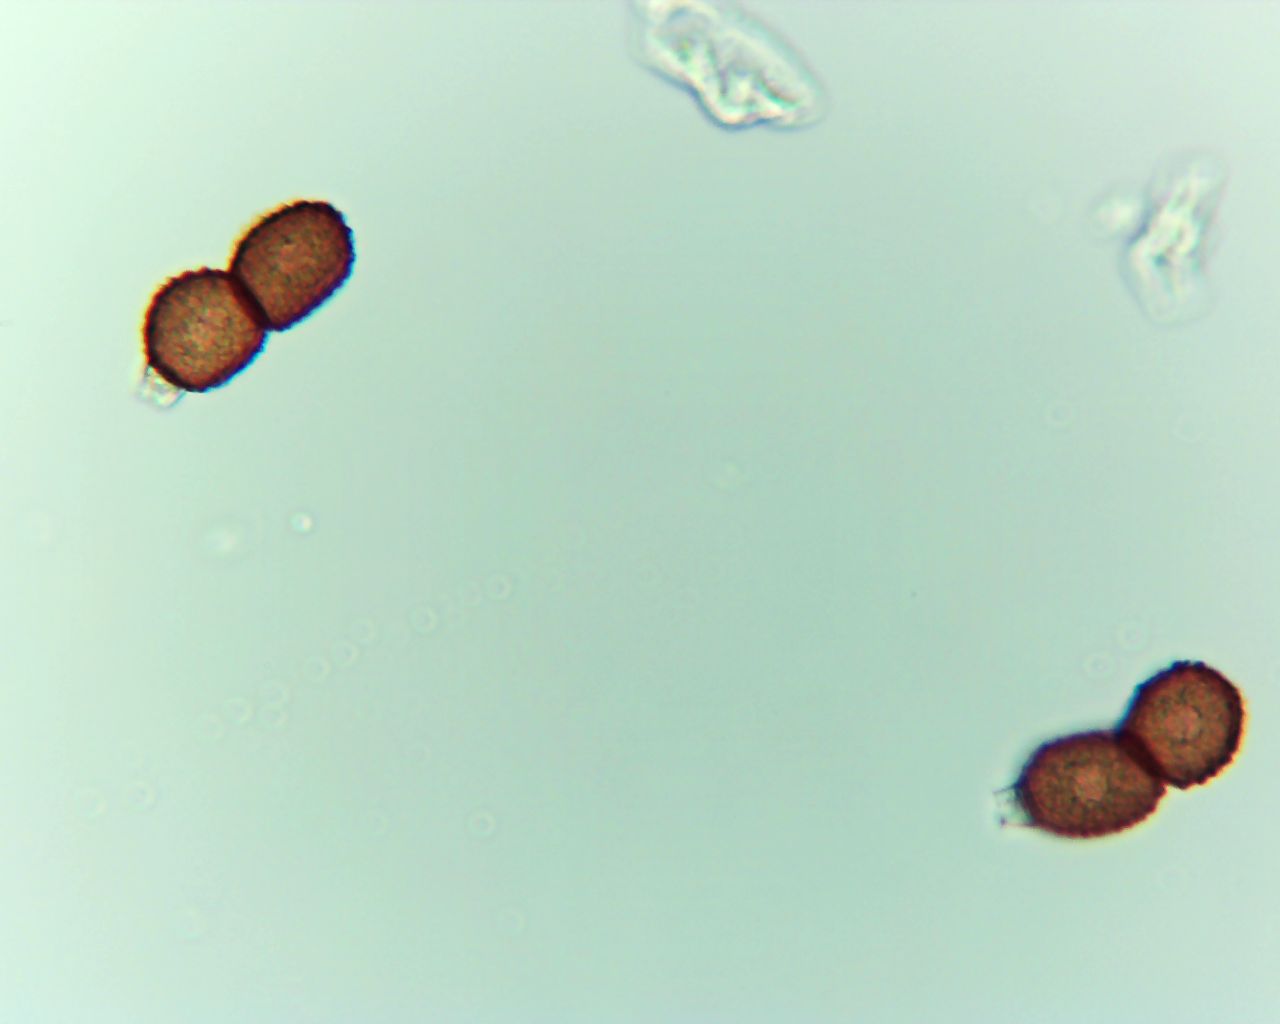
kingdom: Fungi
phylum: Basidiomycota
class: Pucciniomycetes
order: Pucciniales
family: Tranzscheliaceae
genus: Tranzschelia
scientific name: Tranzschelia anemones
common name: anemone-knæksporerust
